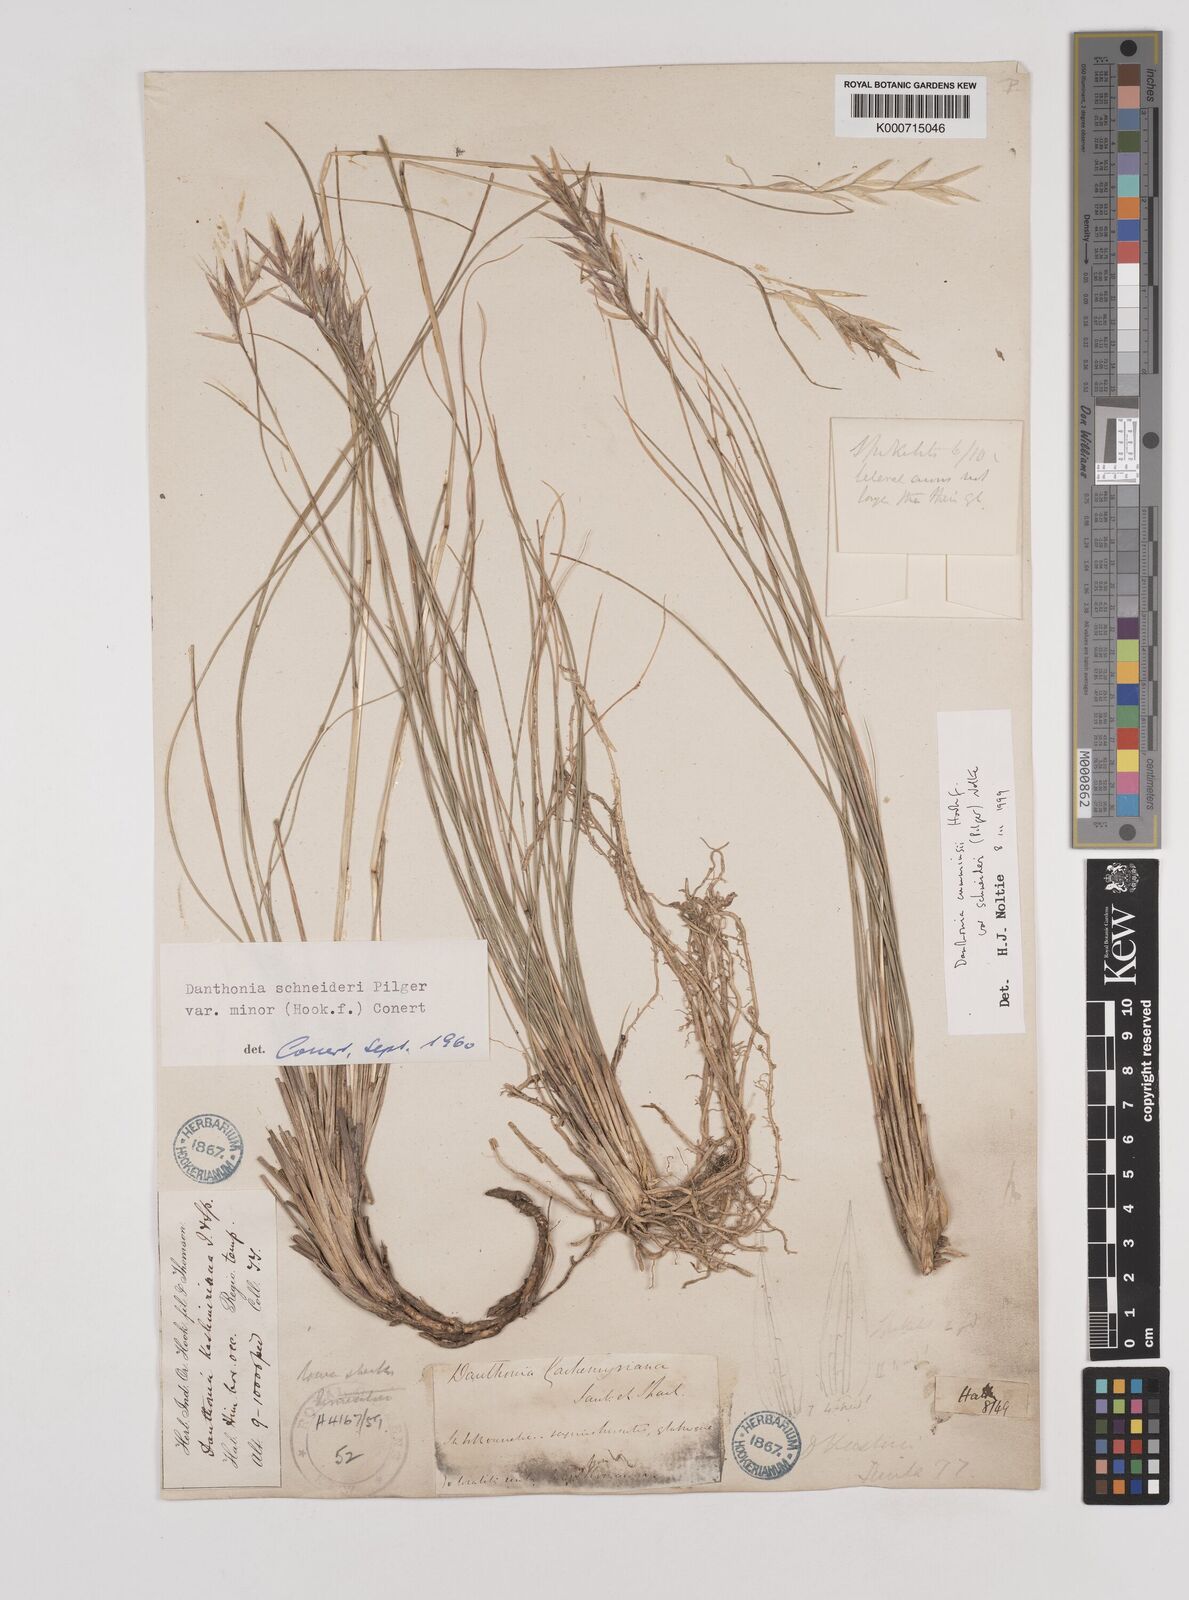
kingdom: Plantae
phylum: Tracheophyta
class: Liliopsida
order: Poales
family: Poaceae
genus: Rytidosperma
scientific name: Rytidosperma
